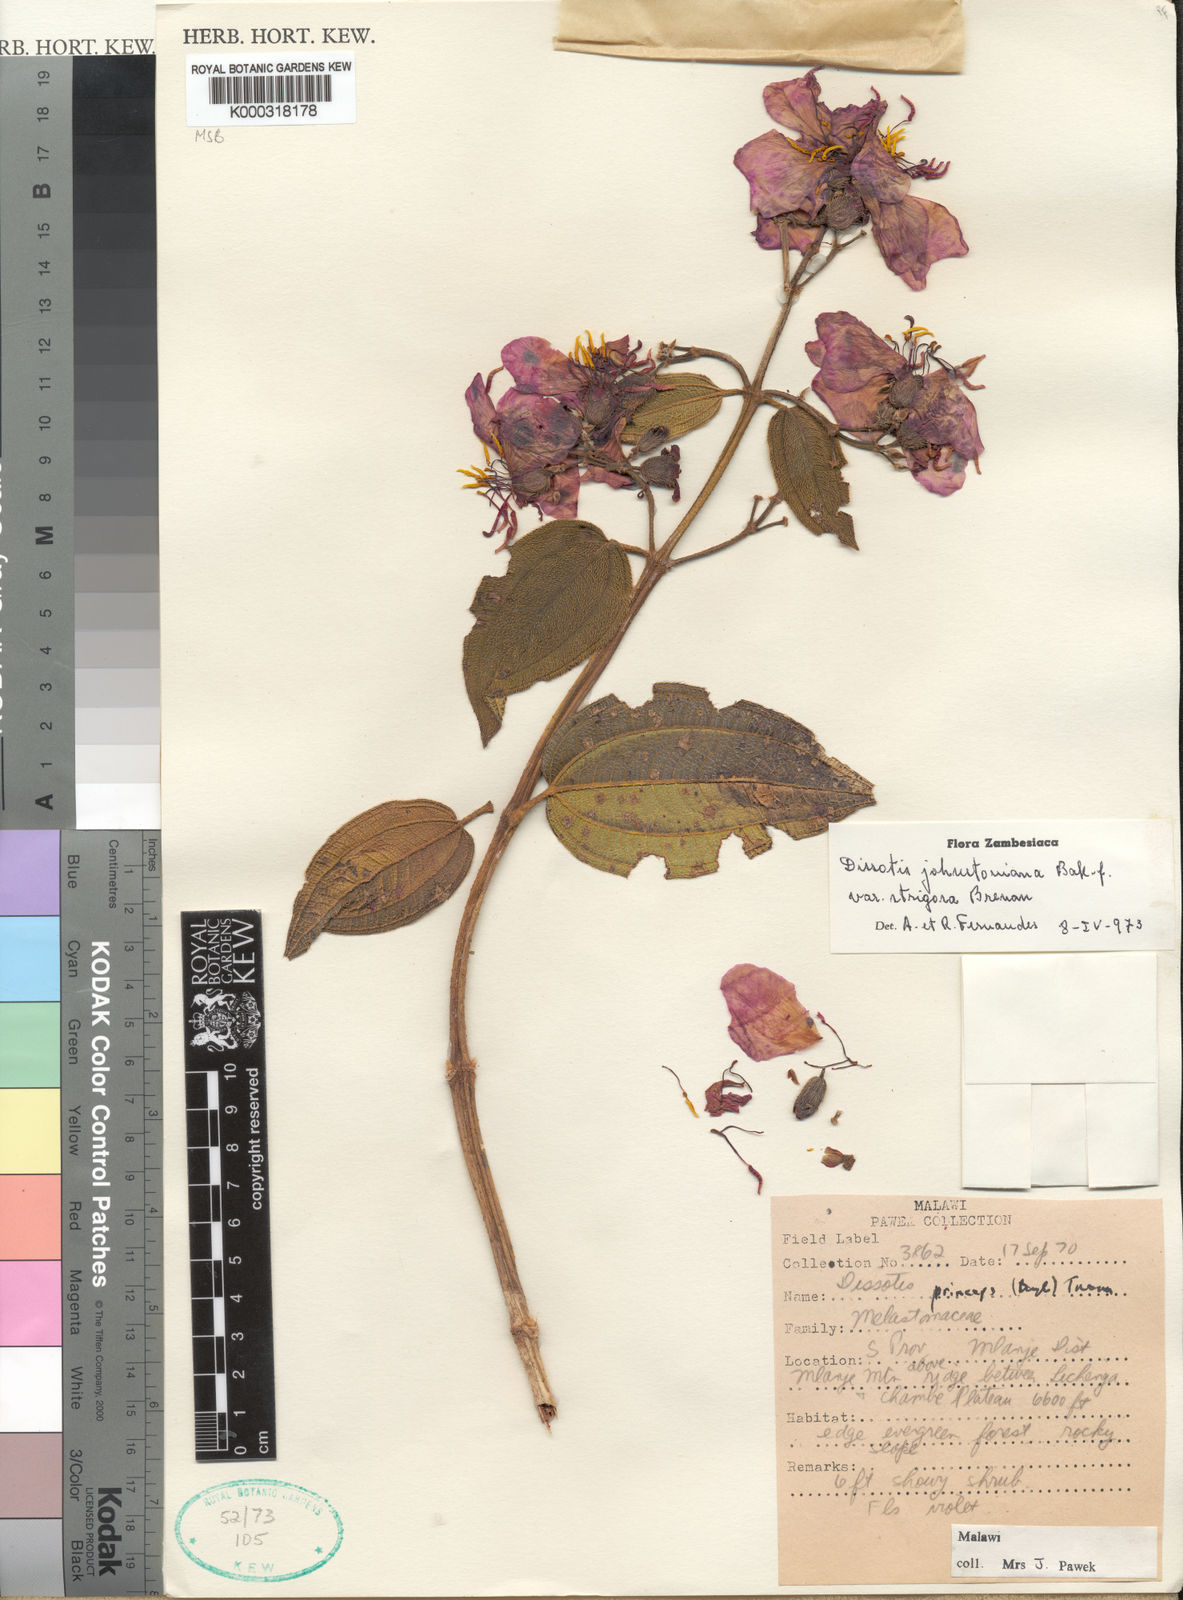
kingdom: Plantae
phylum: Tracheophyta
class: Magnoliopsida
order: Myrtales
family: Melastomataceae
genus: Dissotidendron
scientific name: Dissotidendron johnstonianum
